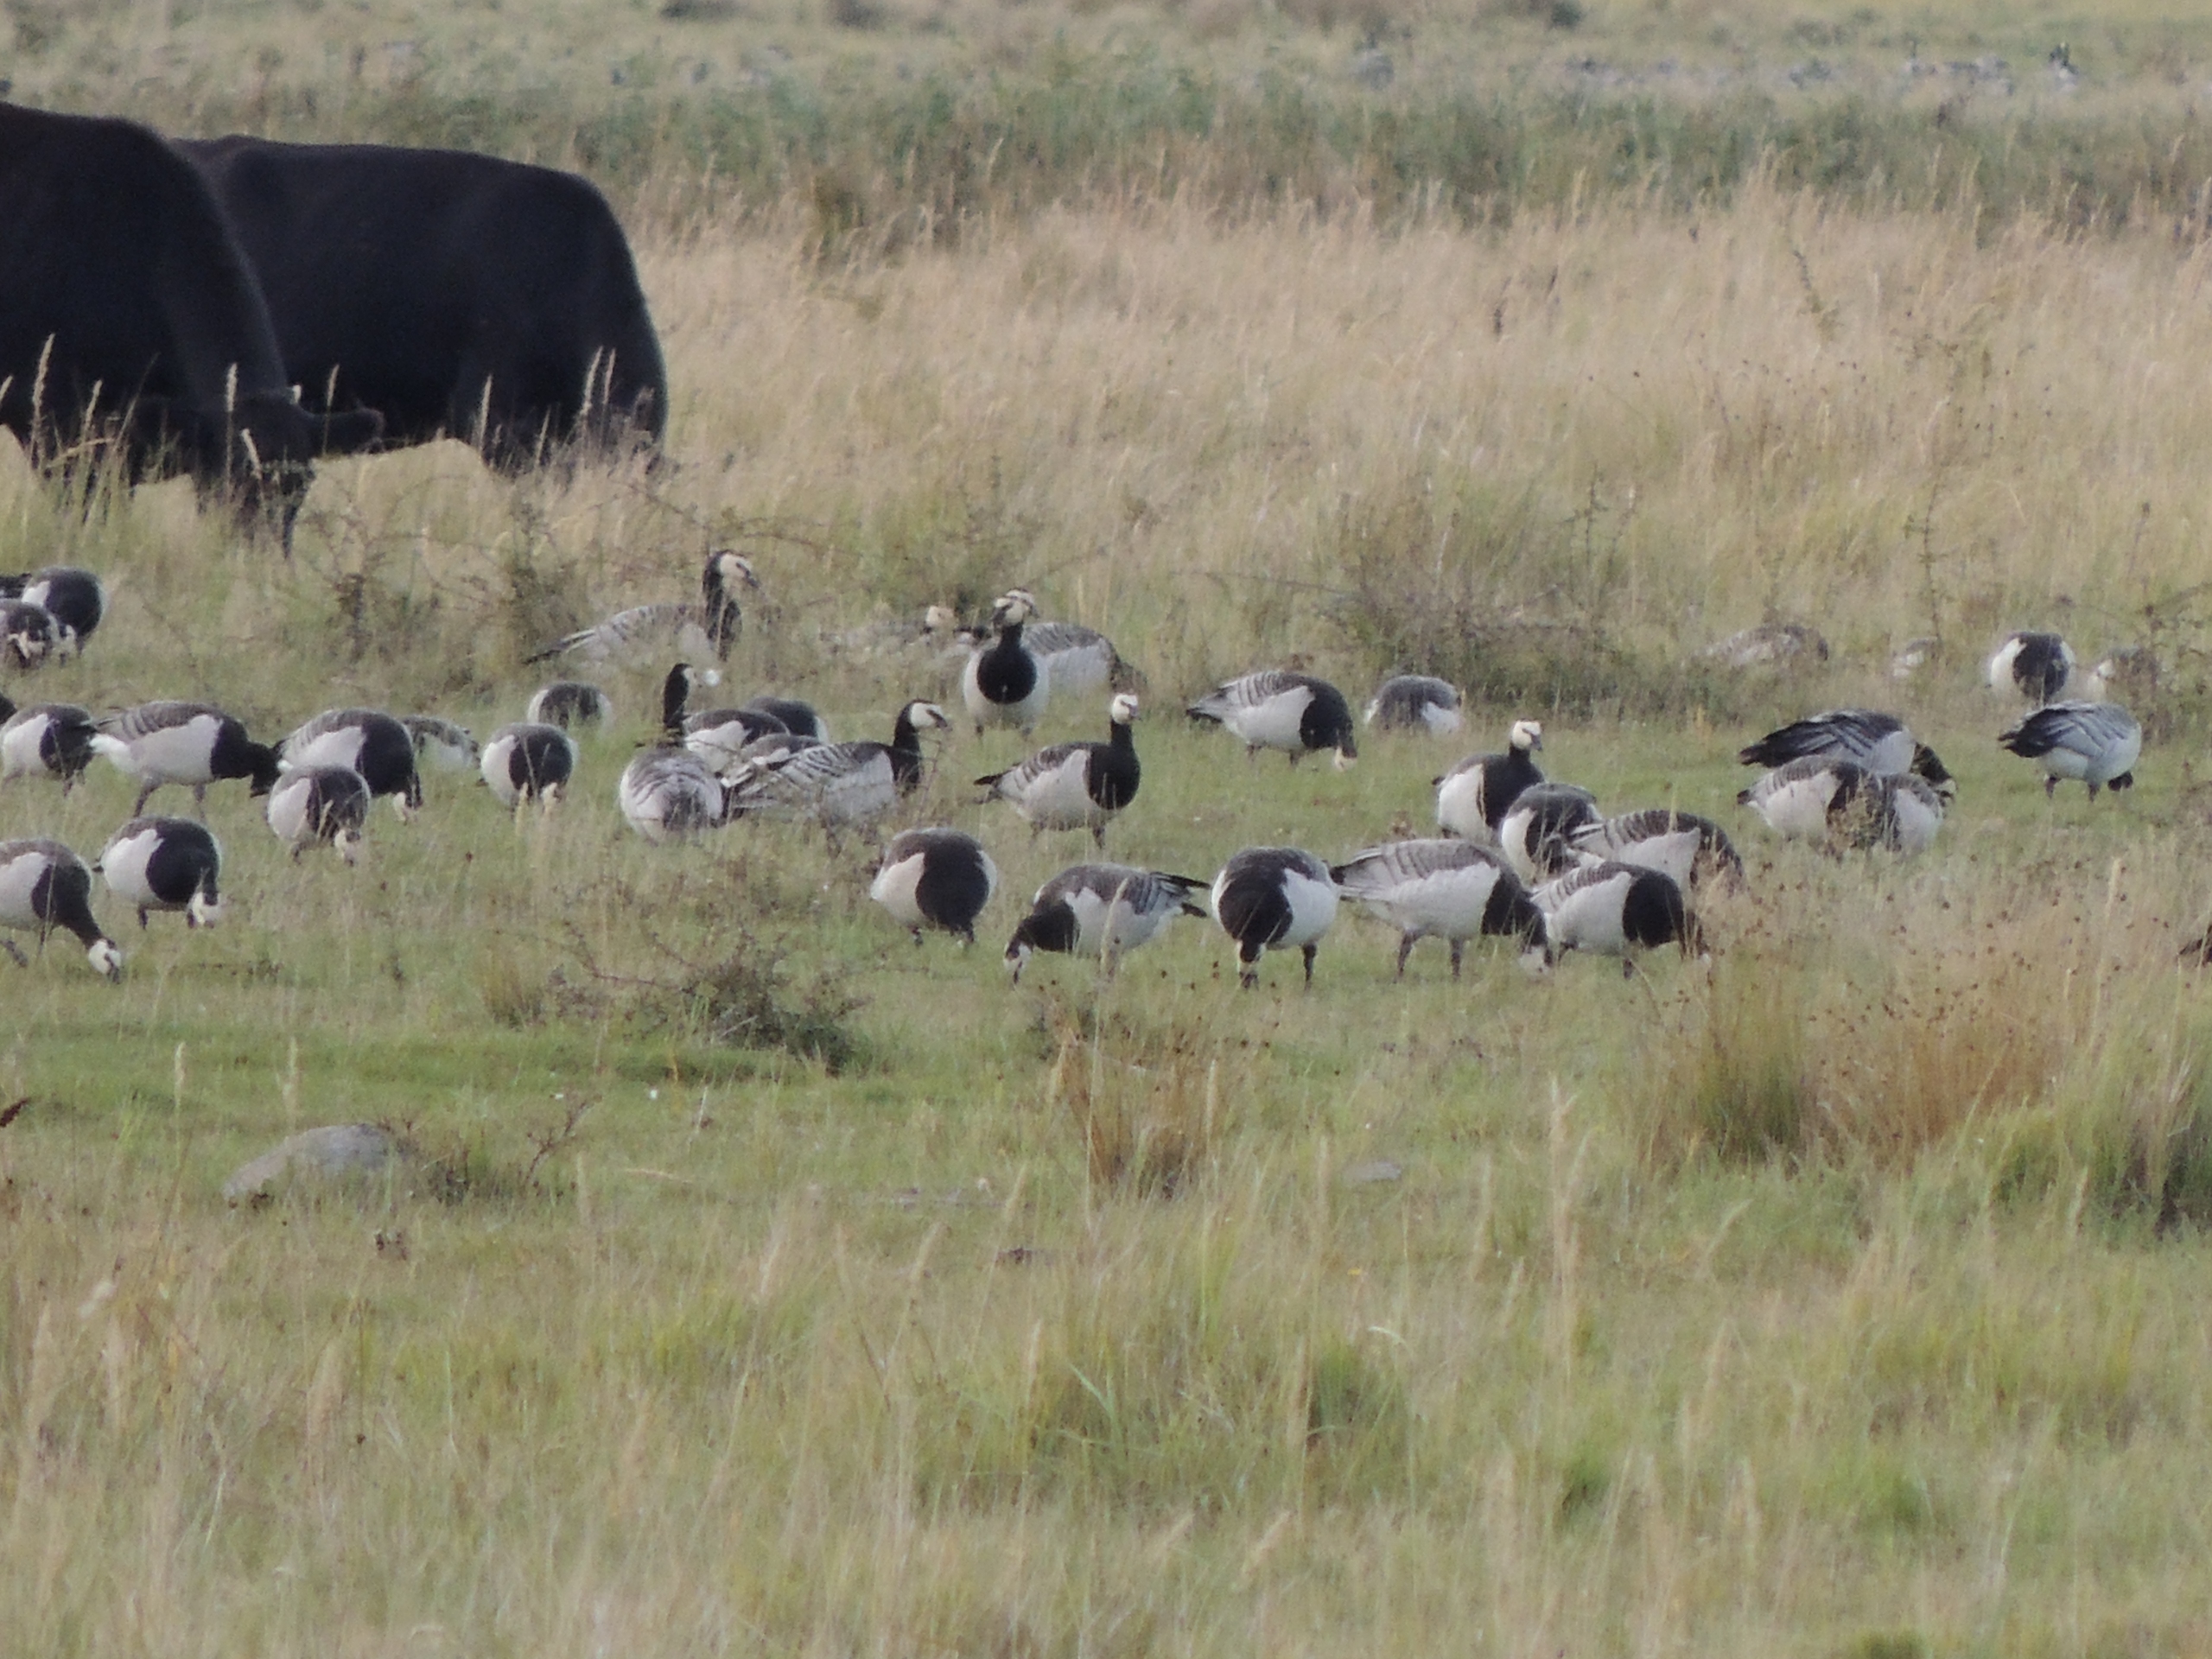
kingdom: Animalia
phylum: Chordata
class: Aves
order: Anseriformes
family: Anatidae
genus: Branta
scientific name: Branta leucopsis
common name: Bramgås
